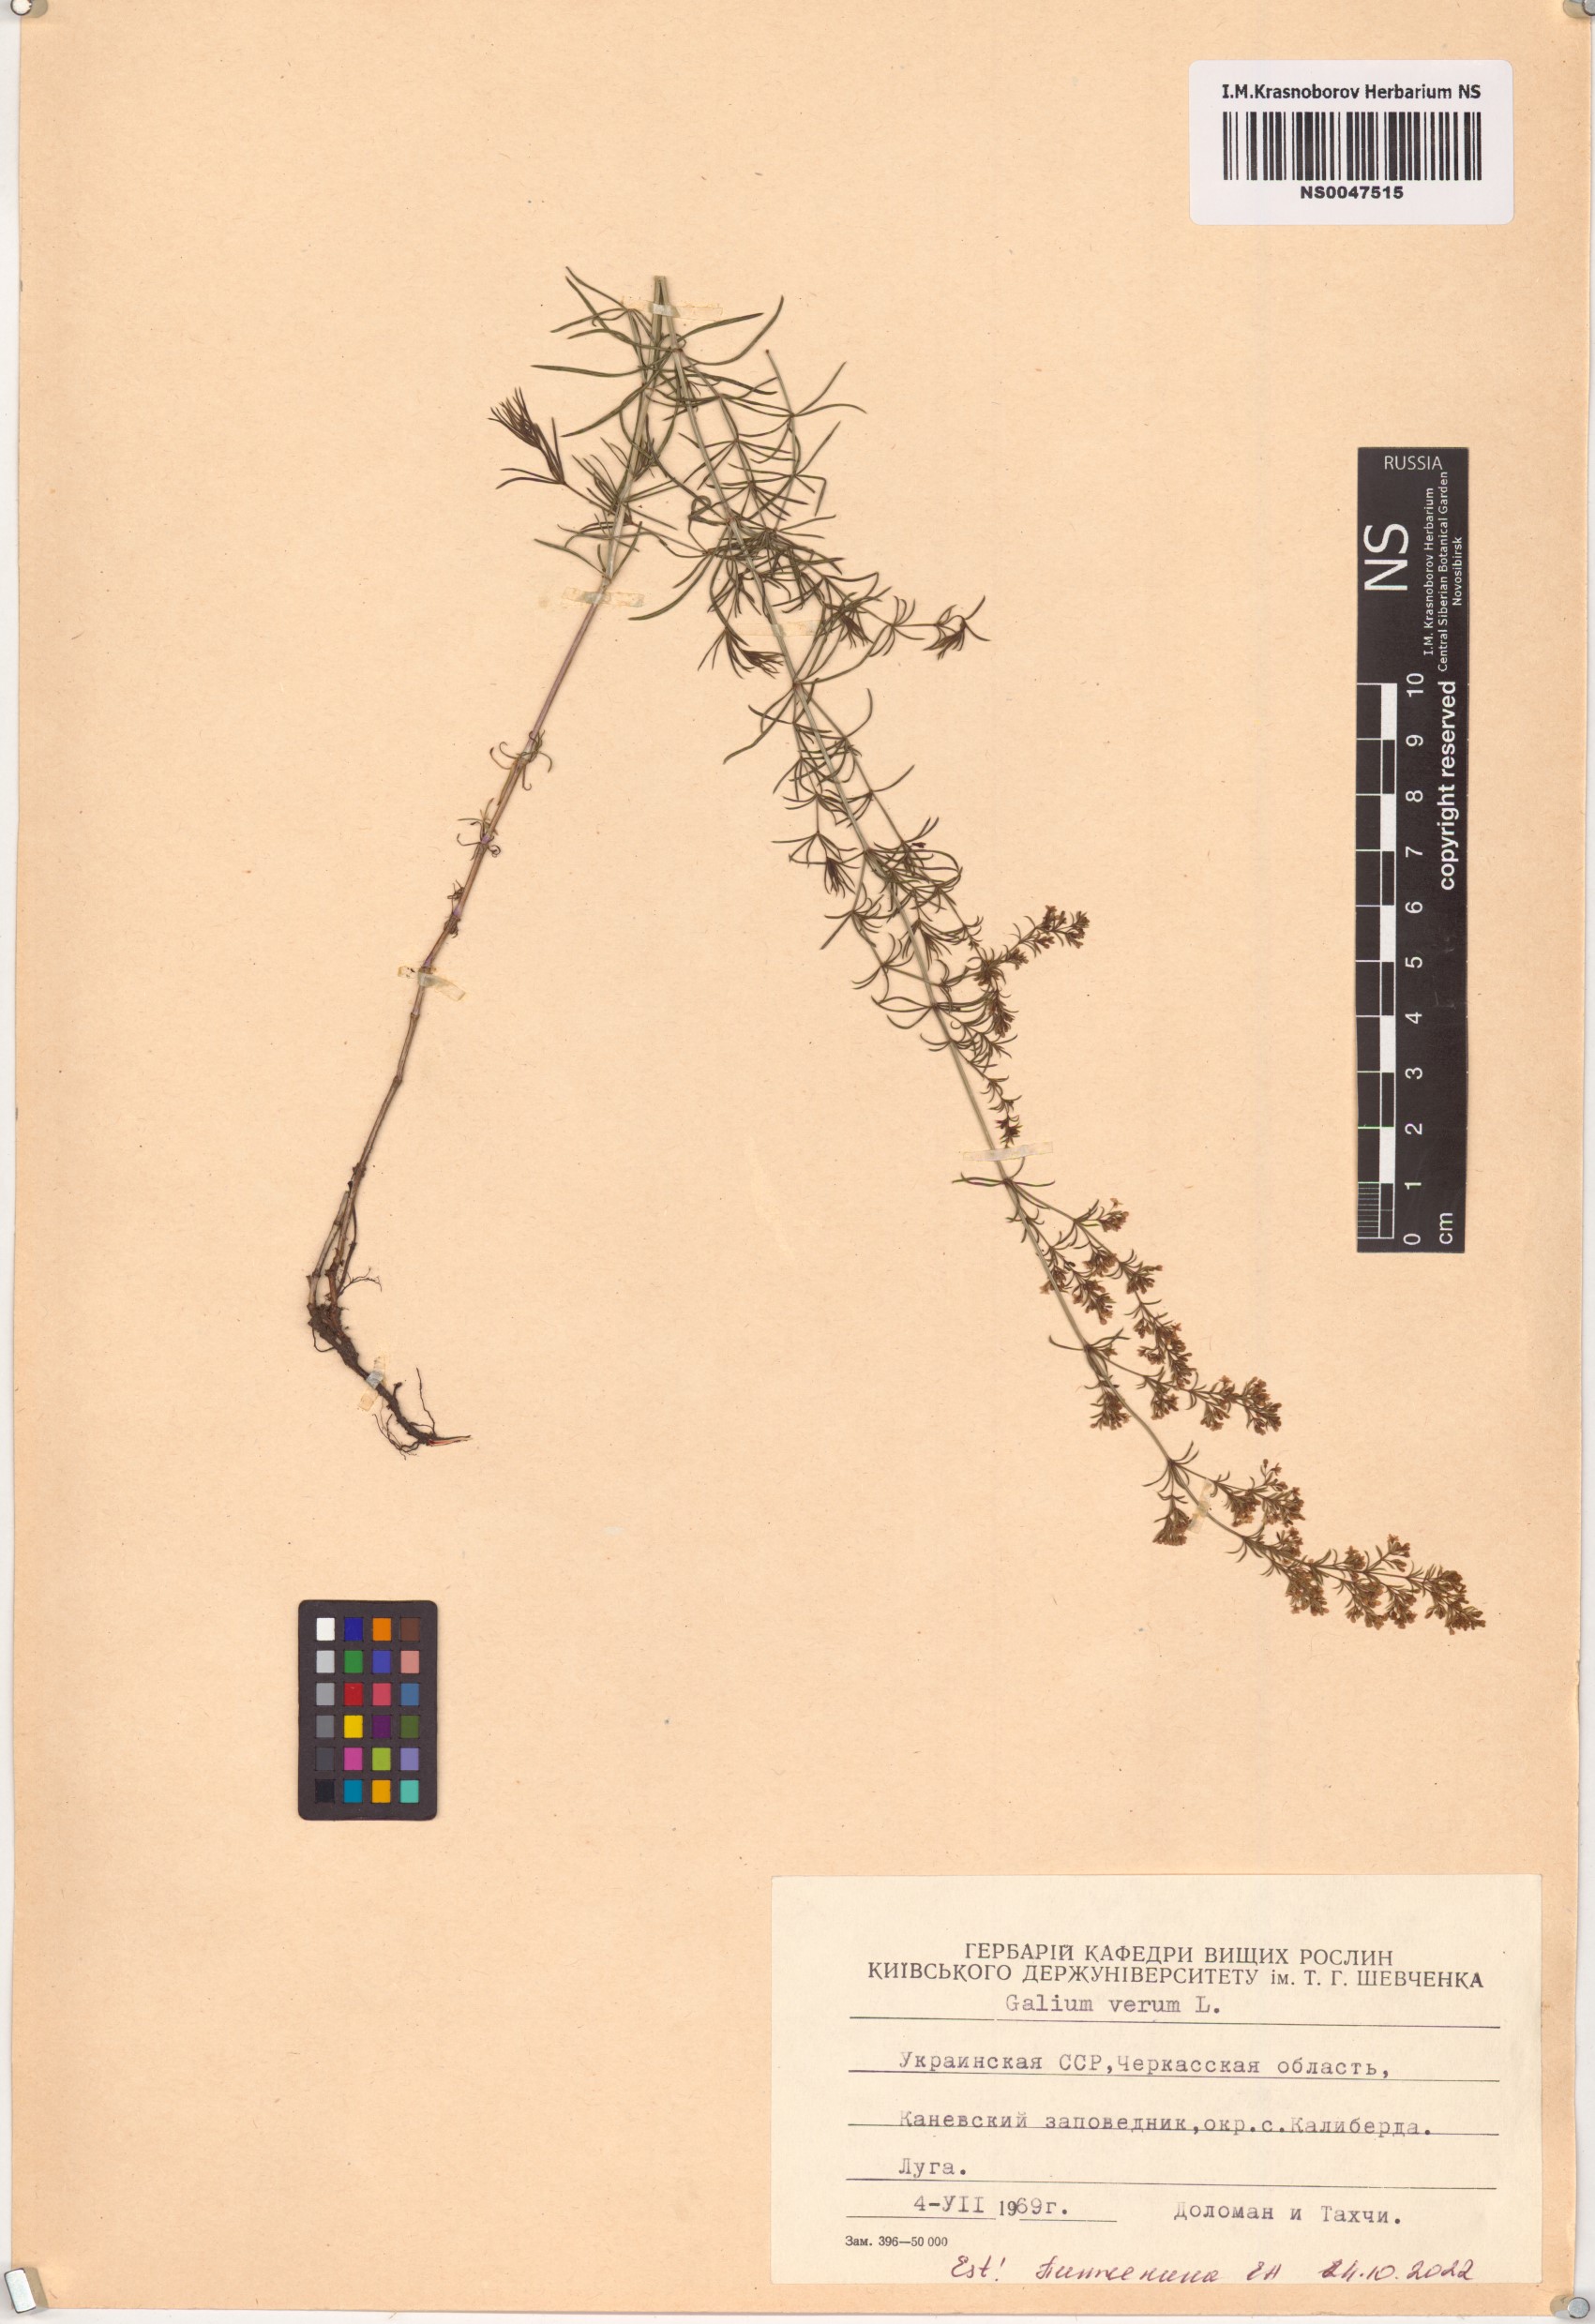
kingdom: Plantae
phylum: Tracheophyta
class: Magnoliopsida
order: Gentianales
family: Rubiaceae
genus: Galium
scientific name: Galium verum
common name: Lady's bedstraw
